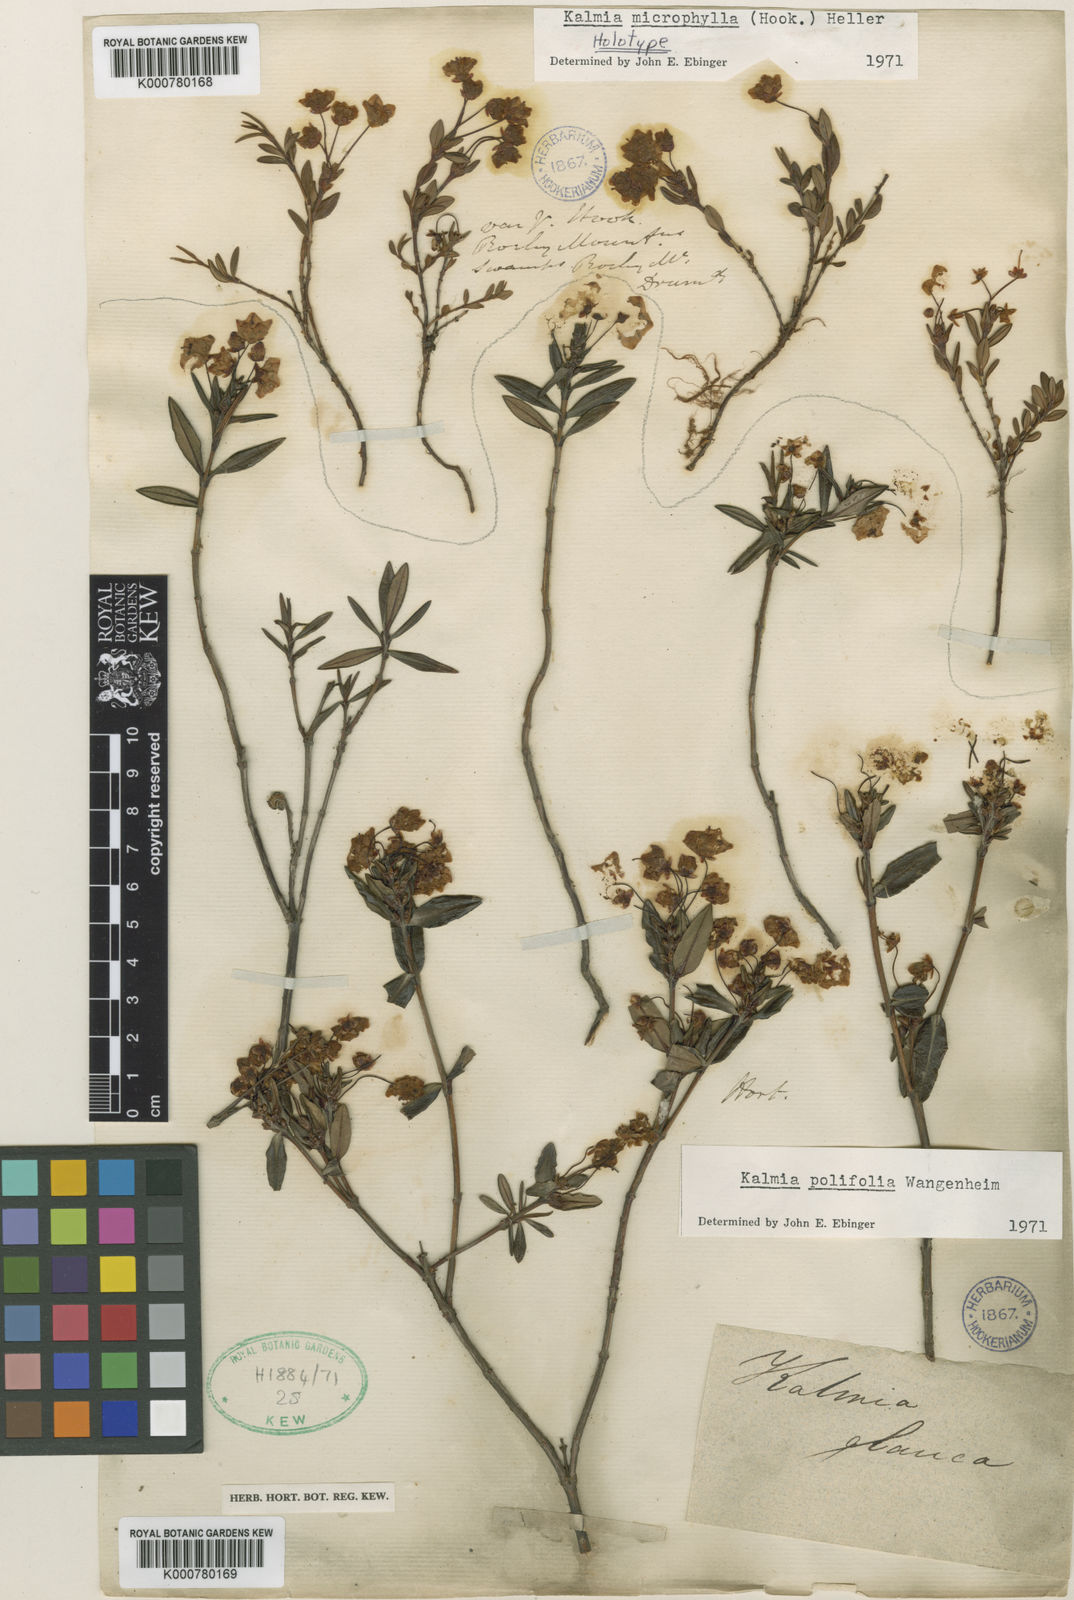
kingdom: Plantae
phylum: Tracheophyta
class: Magnoliopsida
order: Ericales
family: Ericaceae
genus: Kalmia
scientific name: Kalmia microphylla
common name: Alpine bog laurel
